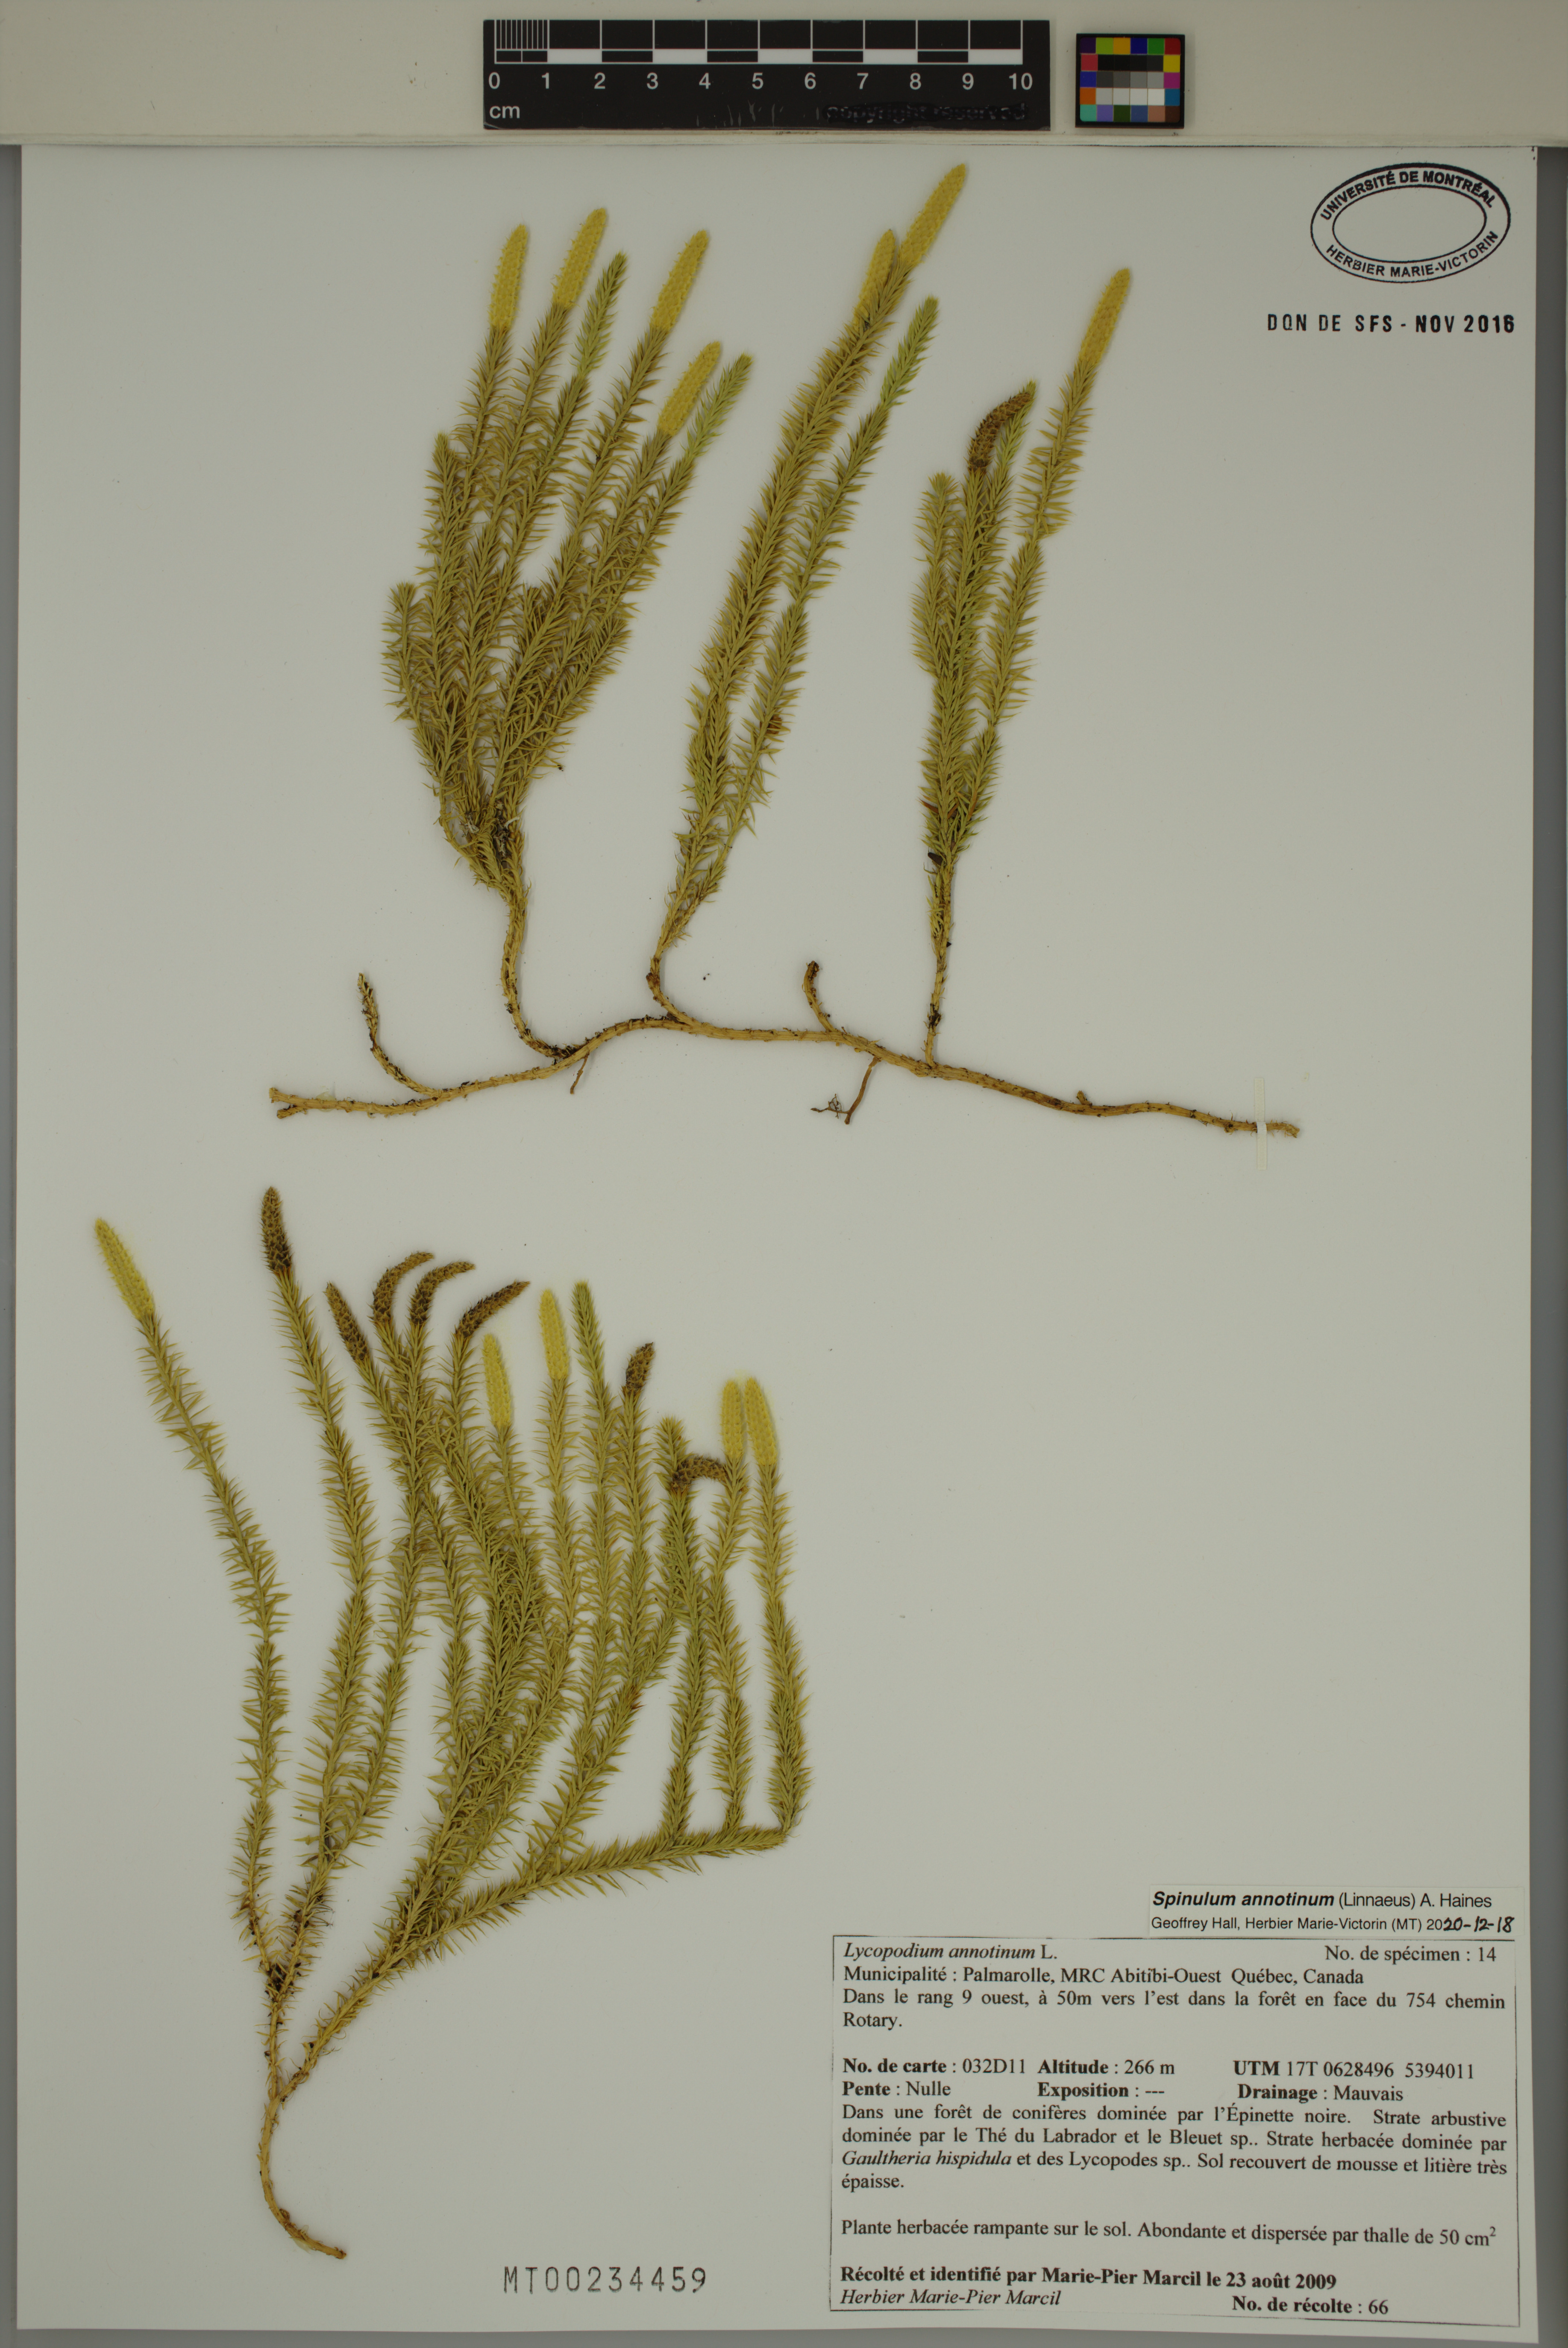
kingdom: Plantae
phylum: Tracheophyta
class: Lycopodiopsida
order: Lycopodiales
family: Lycopodiaceae
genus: Spinulum
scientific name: Spinulum annotinum
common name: Interrupted club-moss
